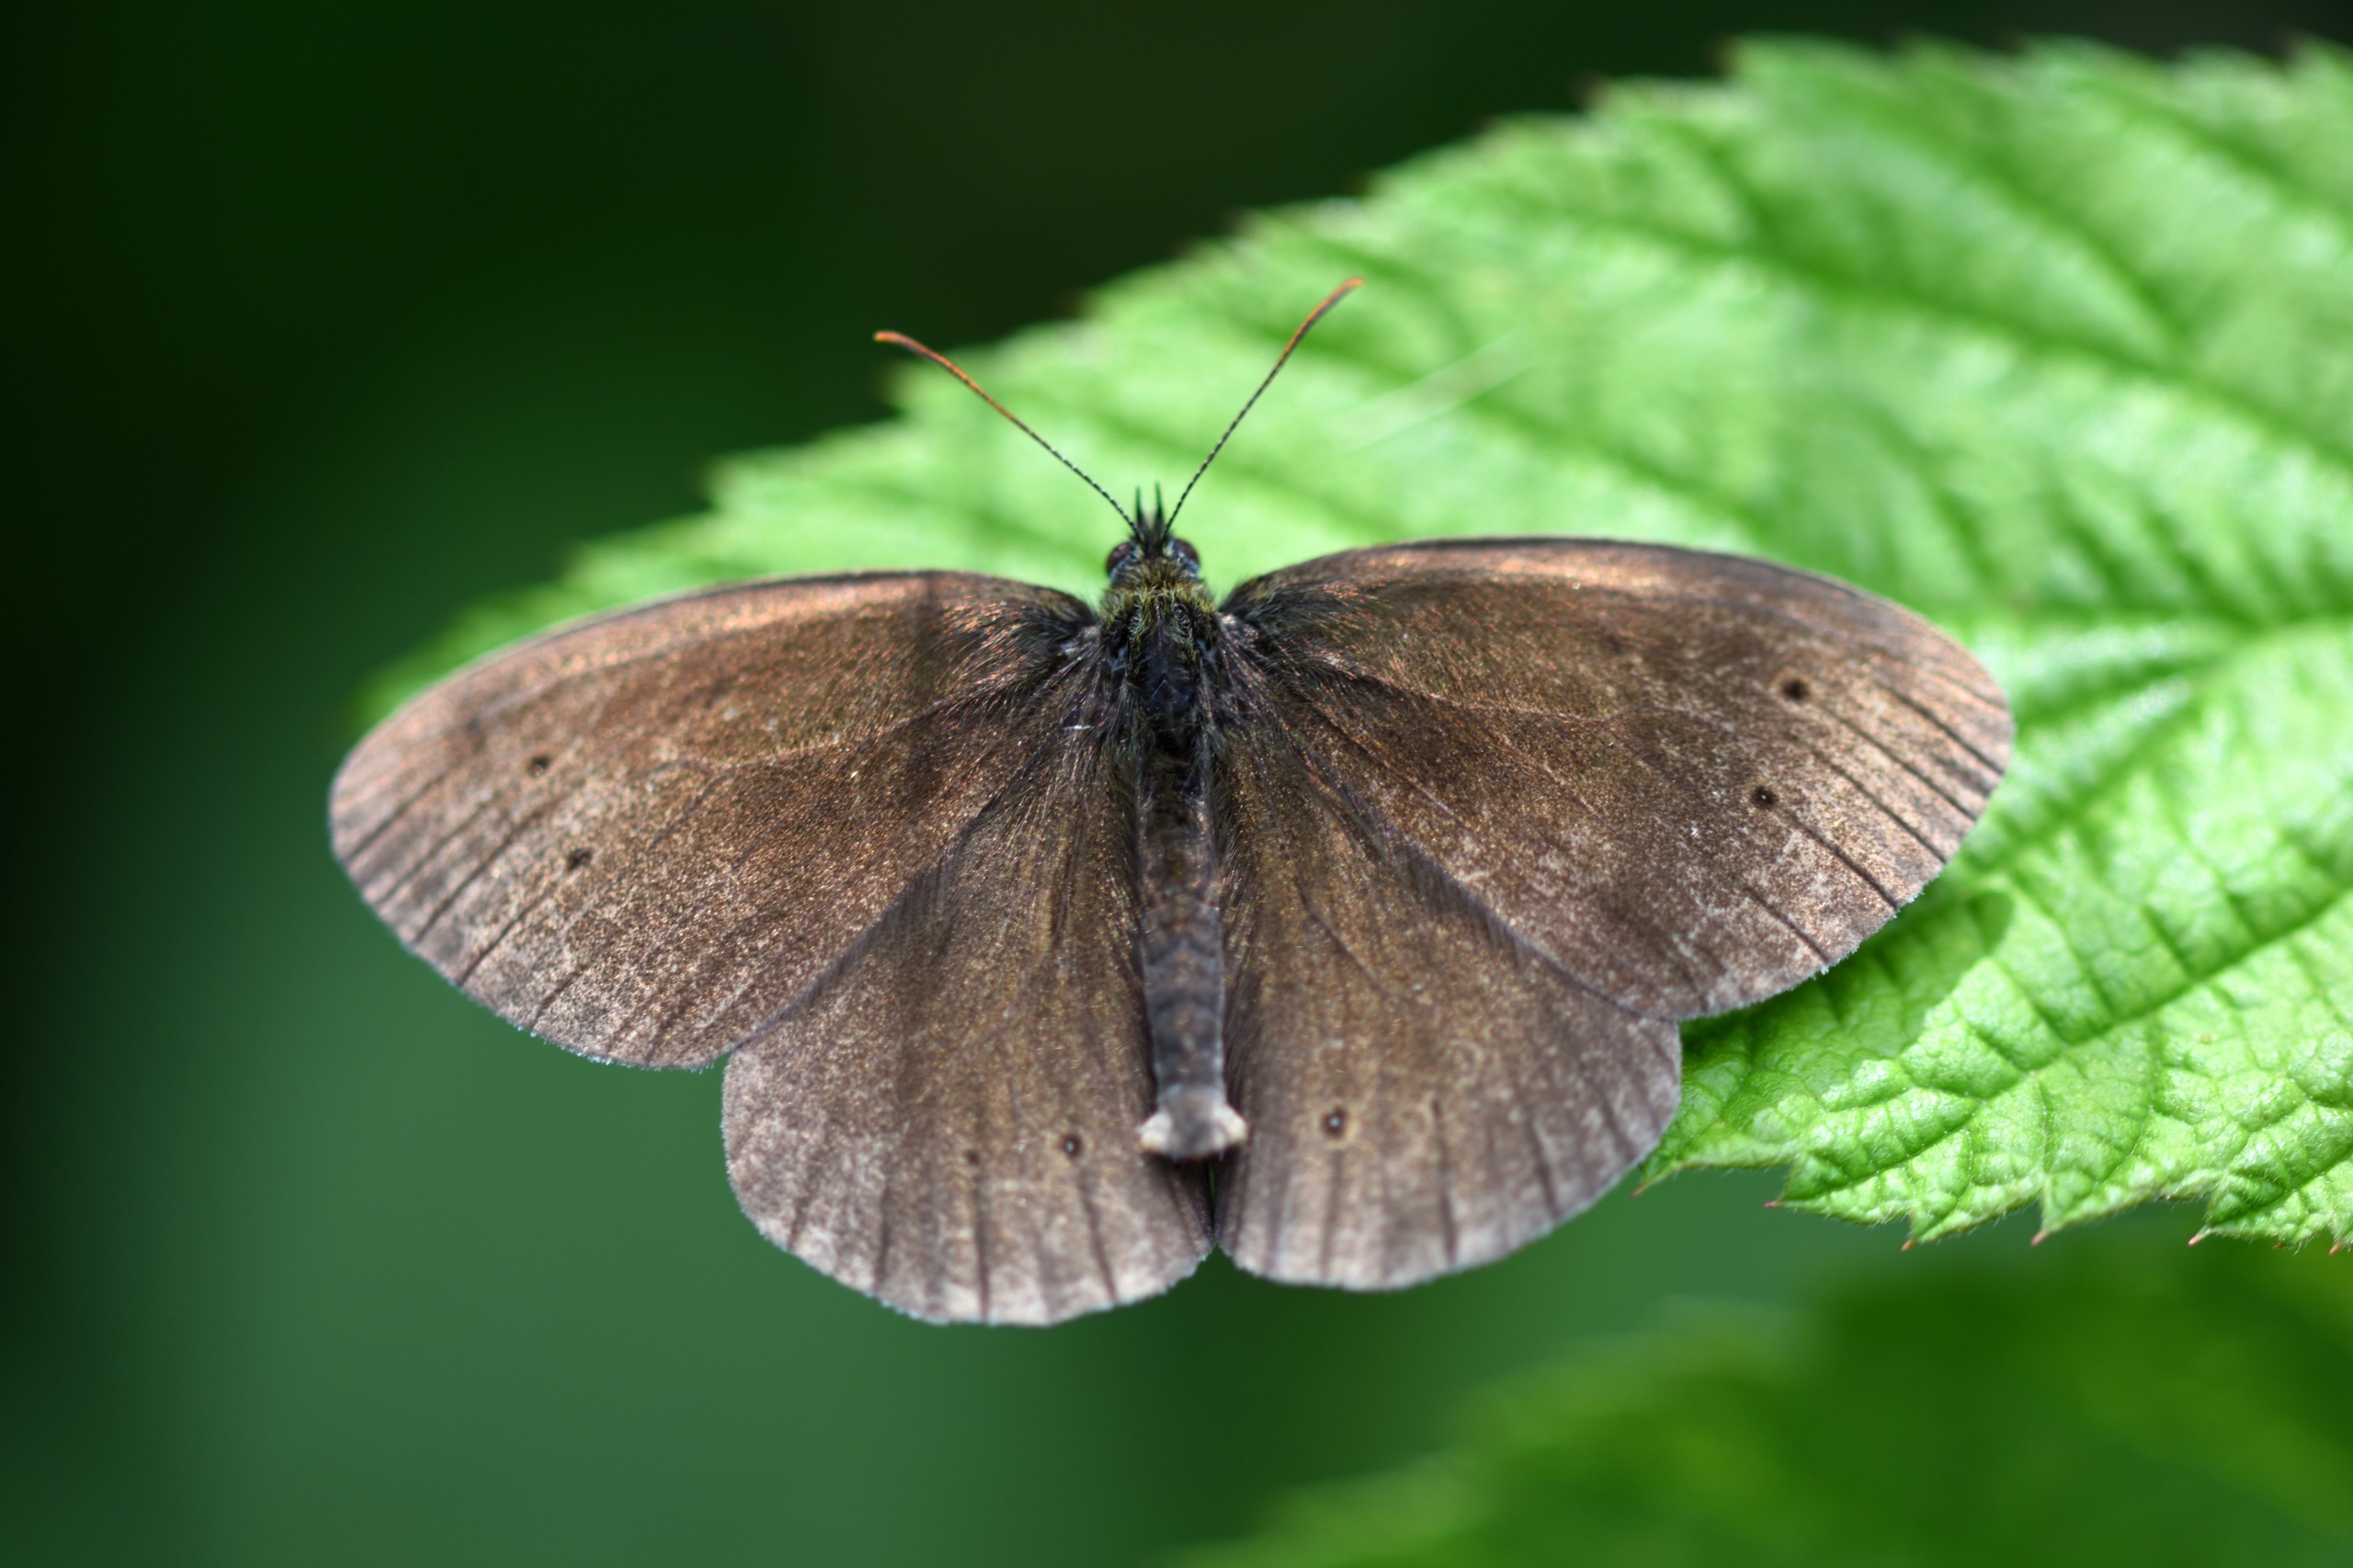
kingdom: Animalia
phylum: Arthropoda
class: Insecta
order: Lepidoptera
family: Nymphalidae
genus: Aphantopus
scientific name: Aphantopus hyperantus
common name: Engrandøje
